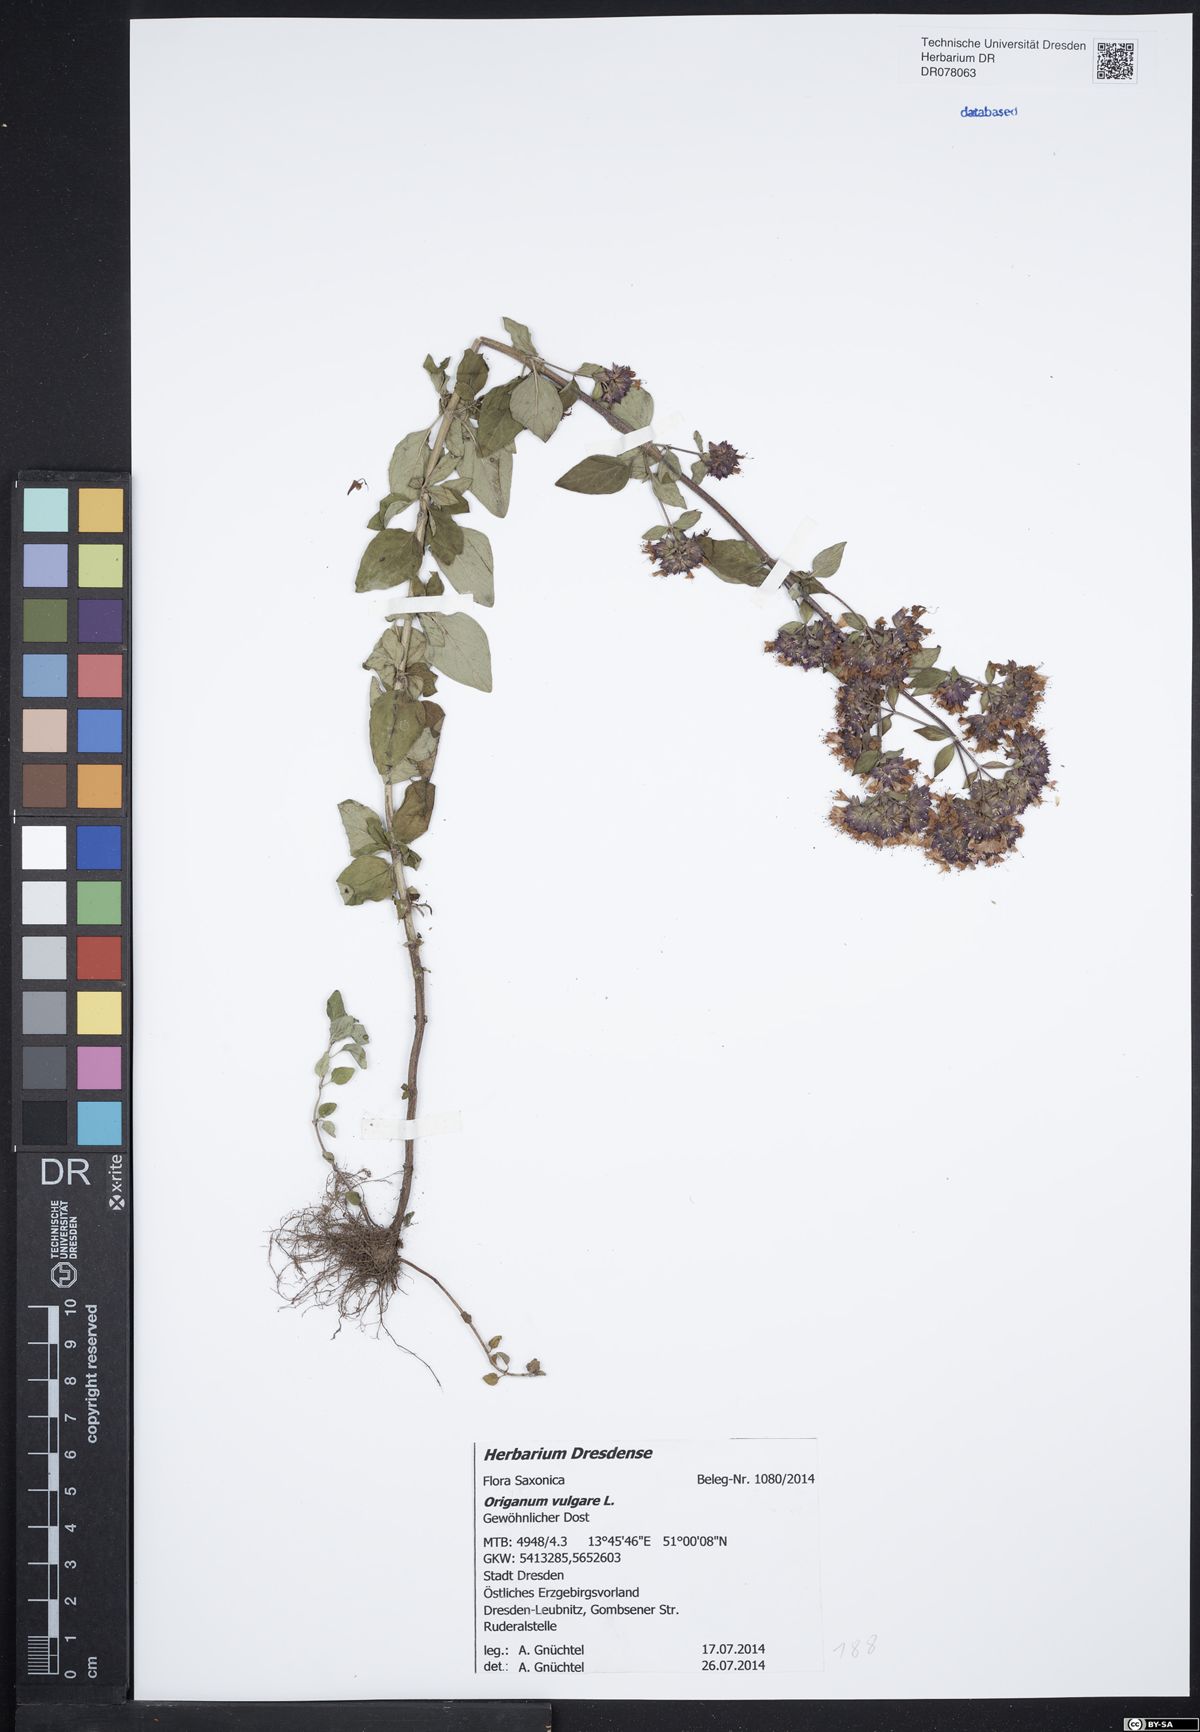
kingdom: Plantae
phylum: Tracheophyta
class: Magnoliopsida
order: Lamiales
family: Lamiaceae
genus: Origanum
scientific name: Origanum vulgare
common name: Wild marjoram
